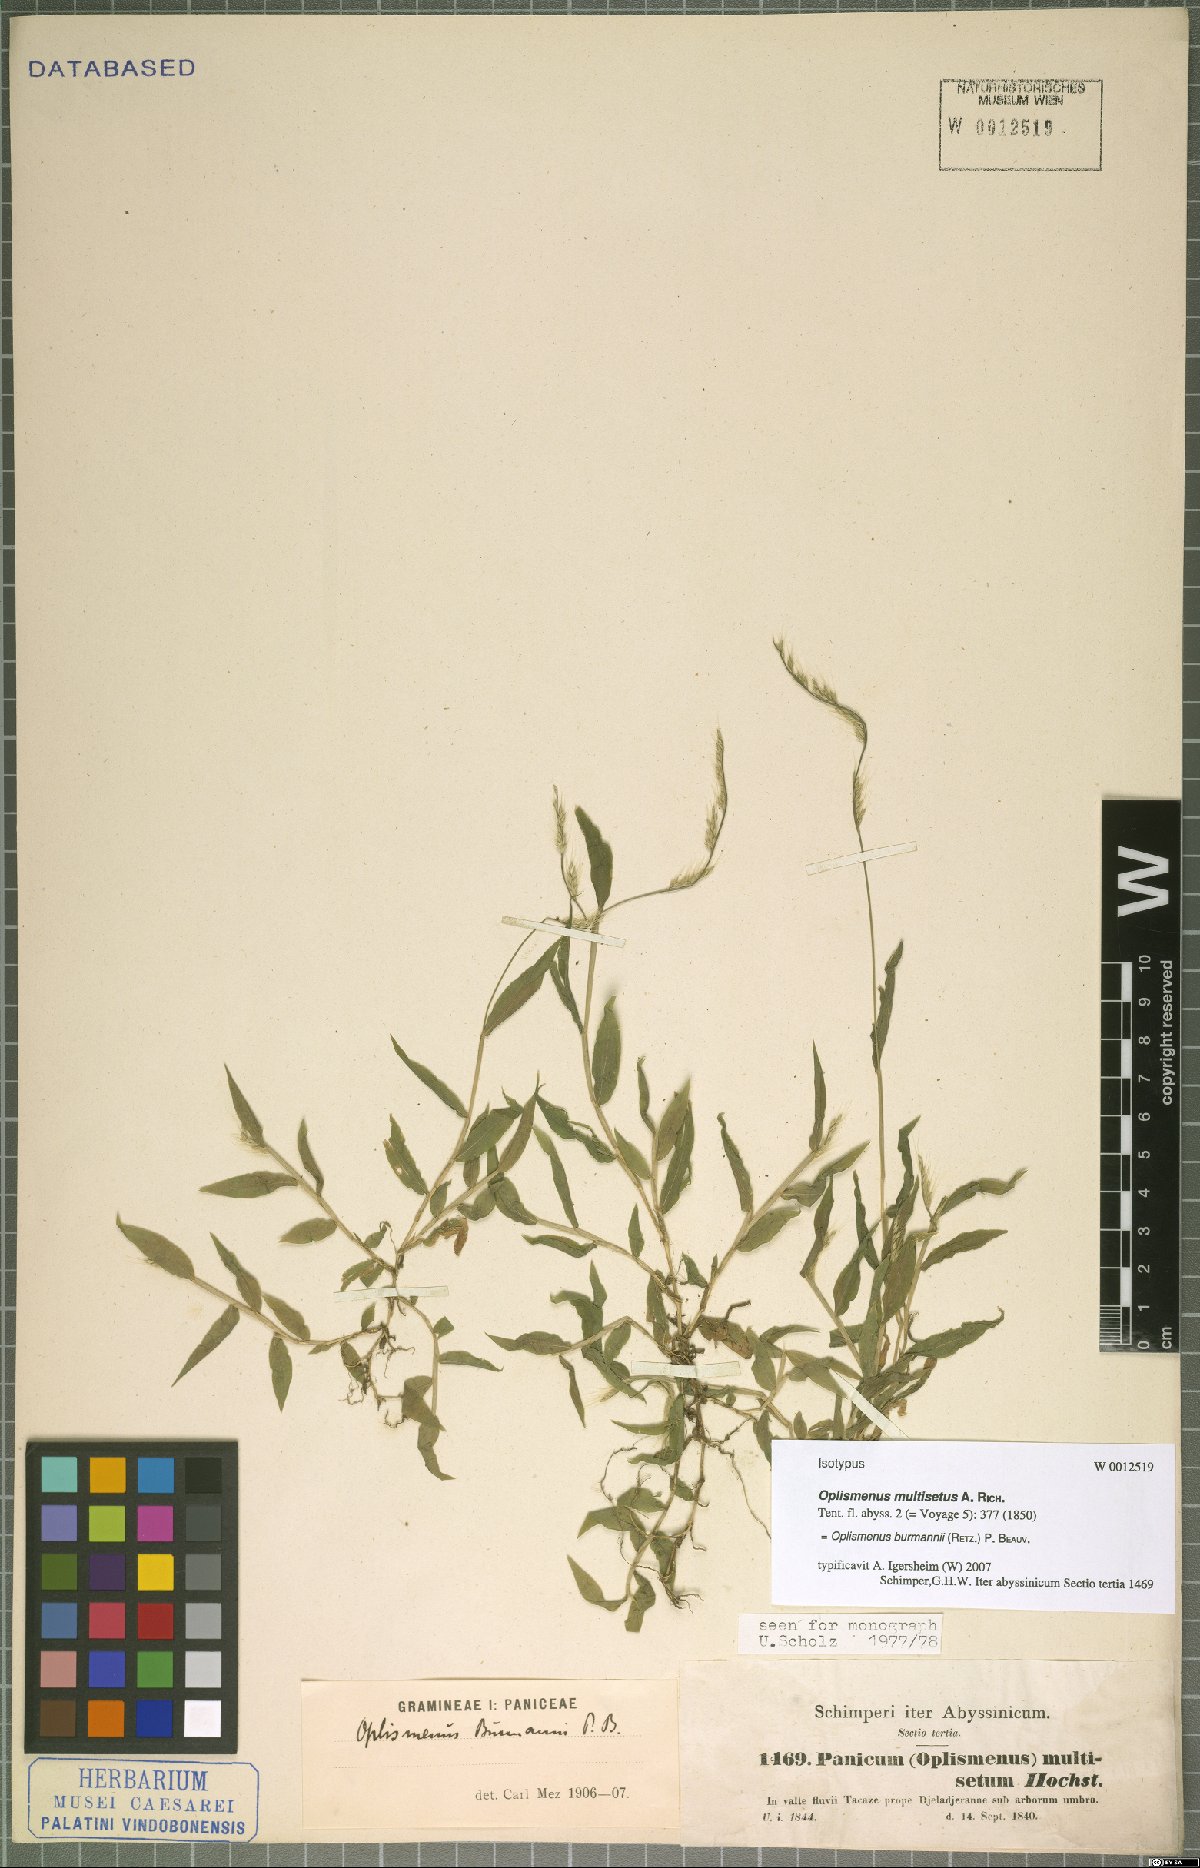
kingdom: Plantae
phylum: Tracheophyta
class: Liliopsida
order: Poales
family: Poaceae
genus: Oplismenus
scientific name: Oplismenus burmanni
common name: Burmann's basketgrass
